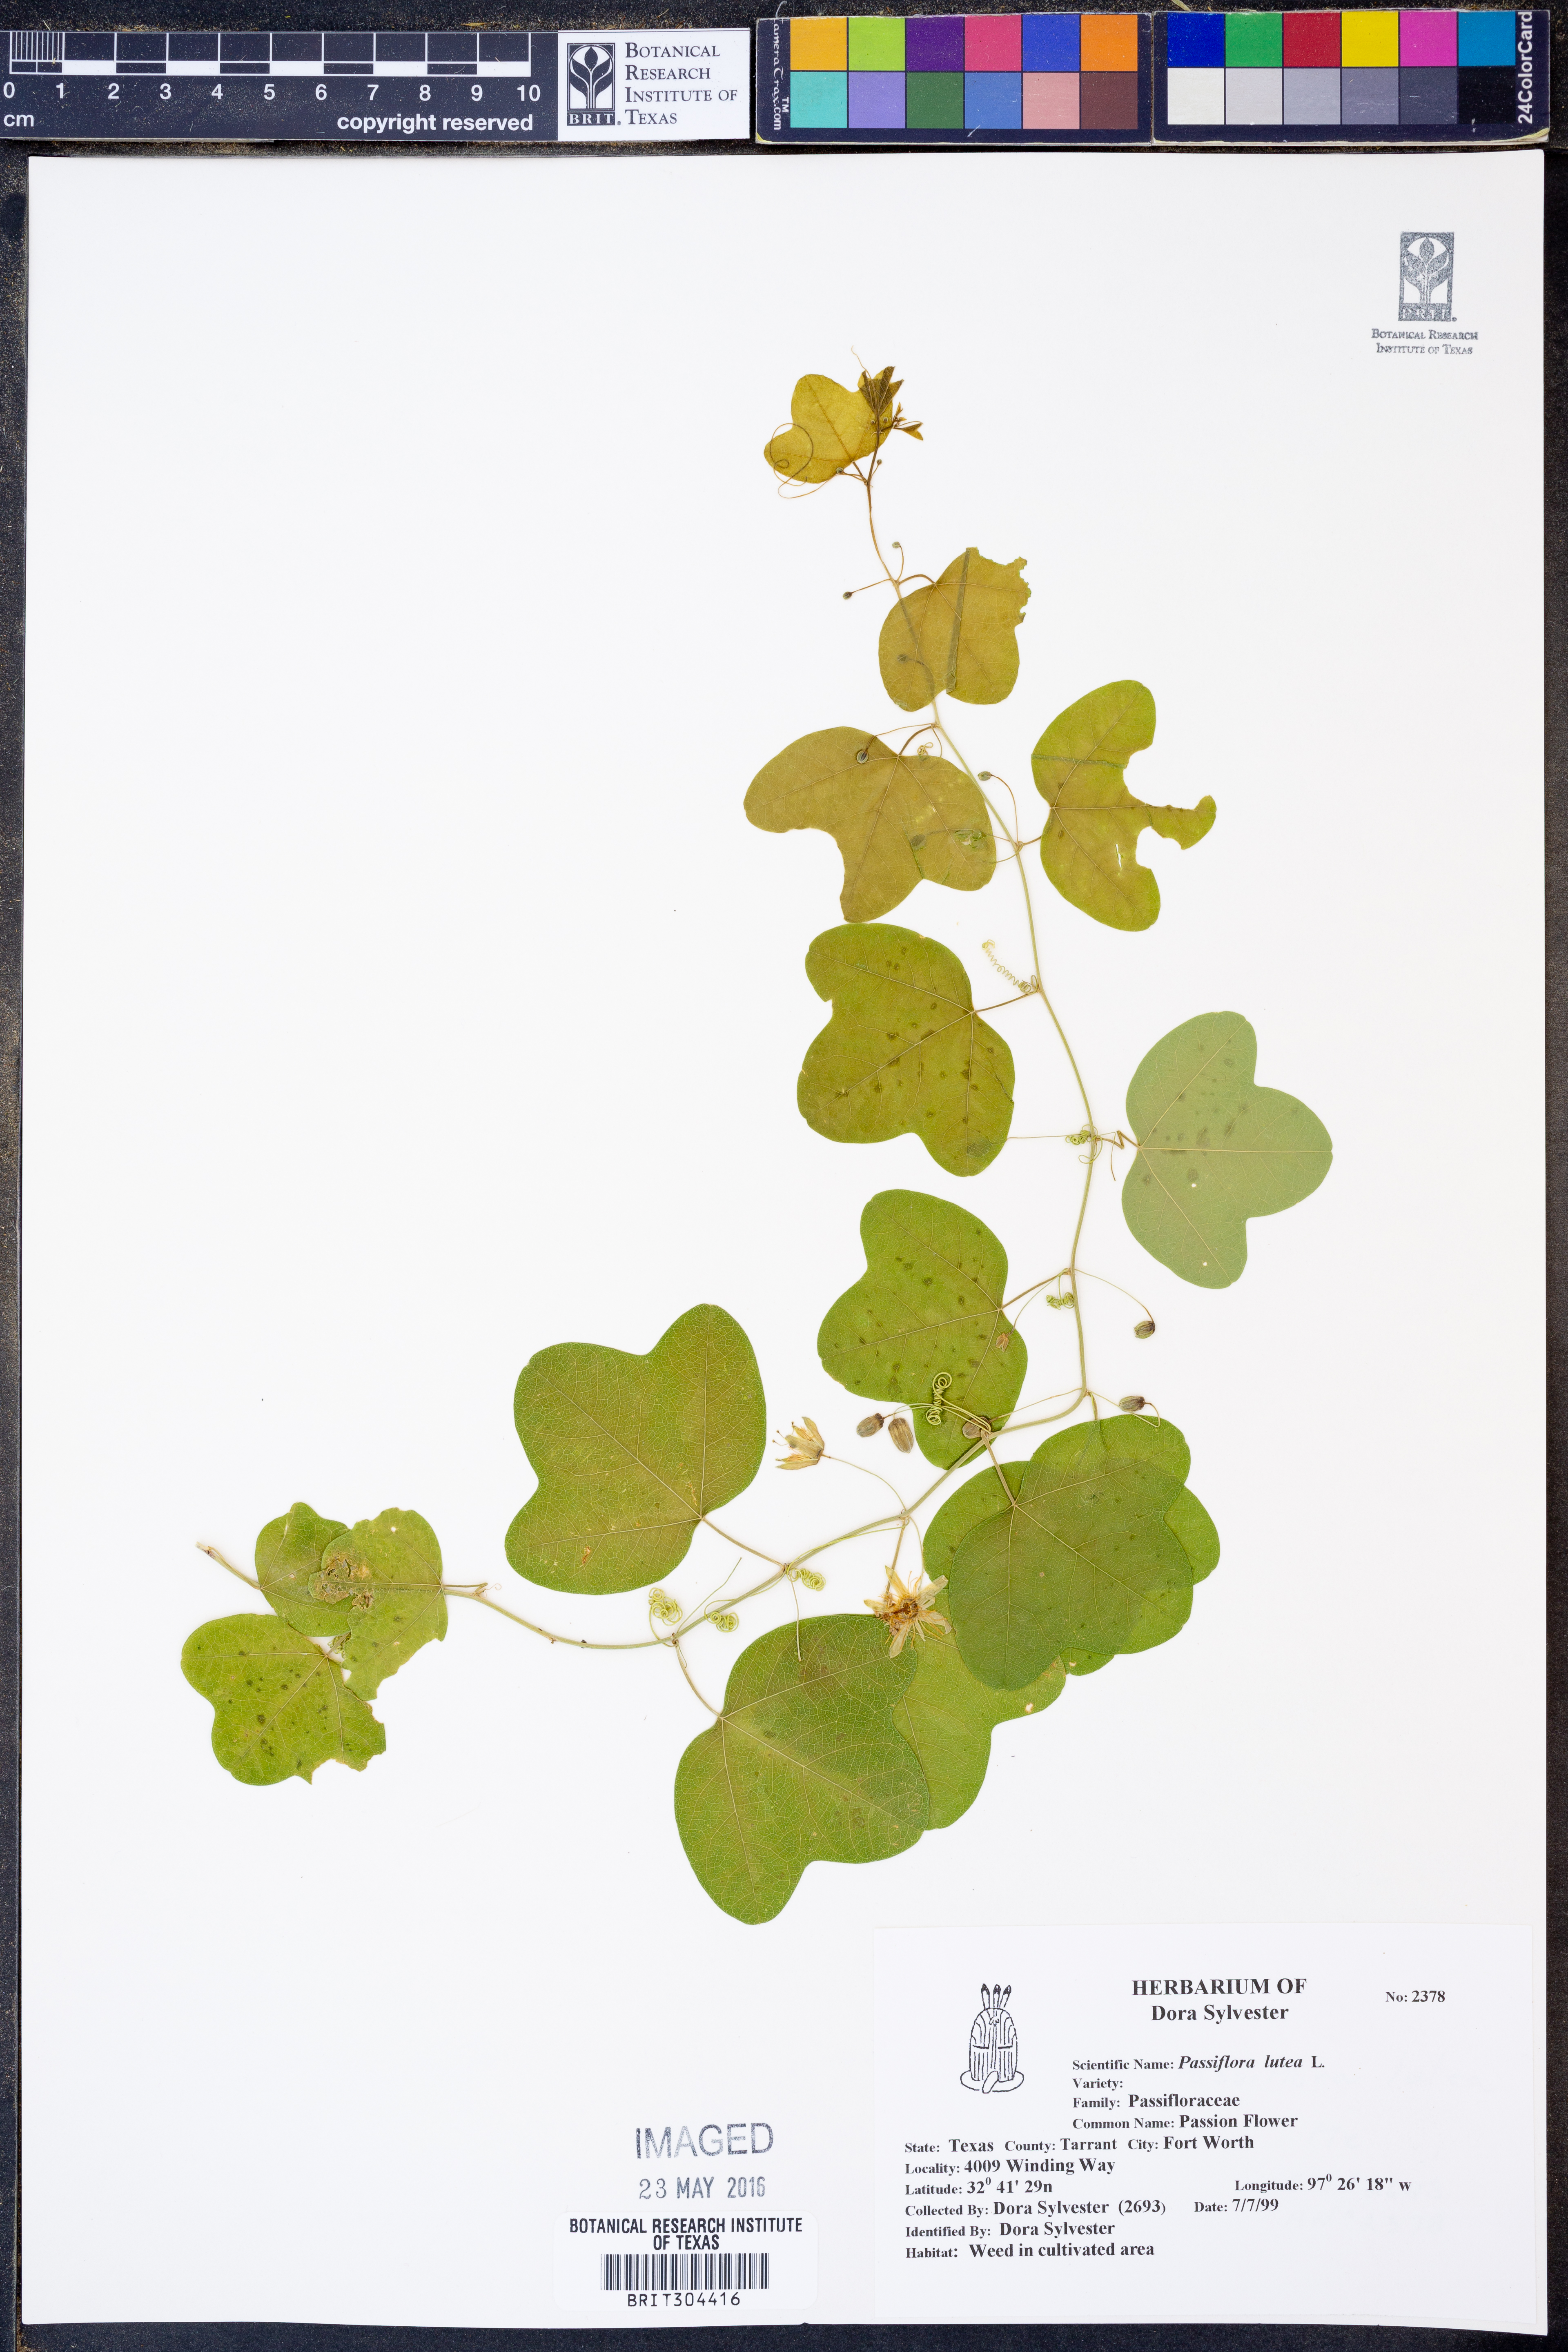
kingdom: Plantae
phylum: Tracheophyta
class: Magnoliopsida
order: Malpighiales
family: Passifloraceae
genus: Passiflora
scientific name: Passiflora lutea
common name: Yellow passionflower
